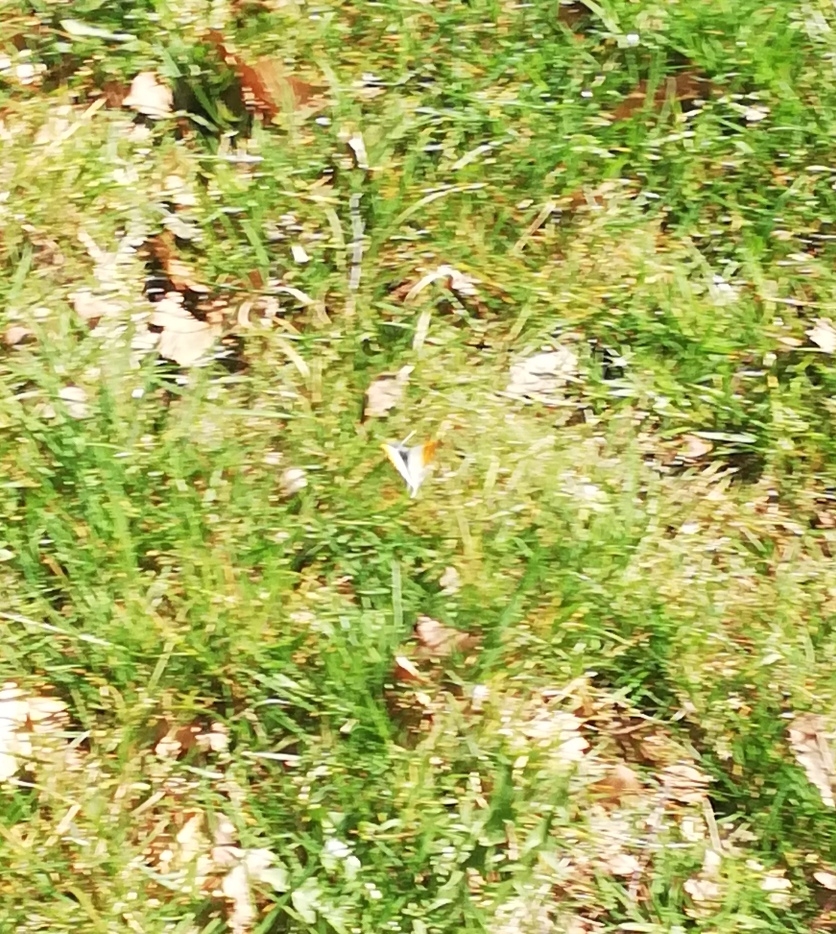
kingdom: Animalia
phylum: Arthropoda
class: Insecta
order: Lepidoptera
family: Pieridae
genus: Anthocharis
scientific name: Anthocharis cardamines
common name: Aurora
